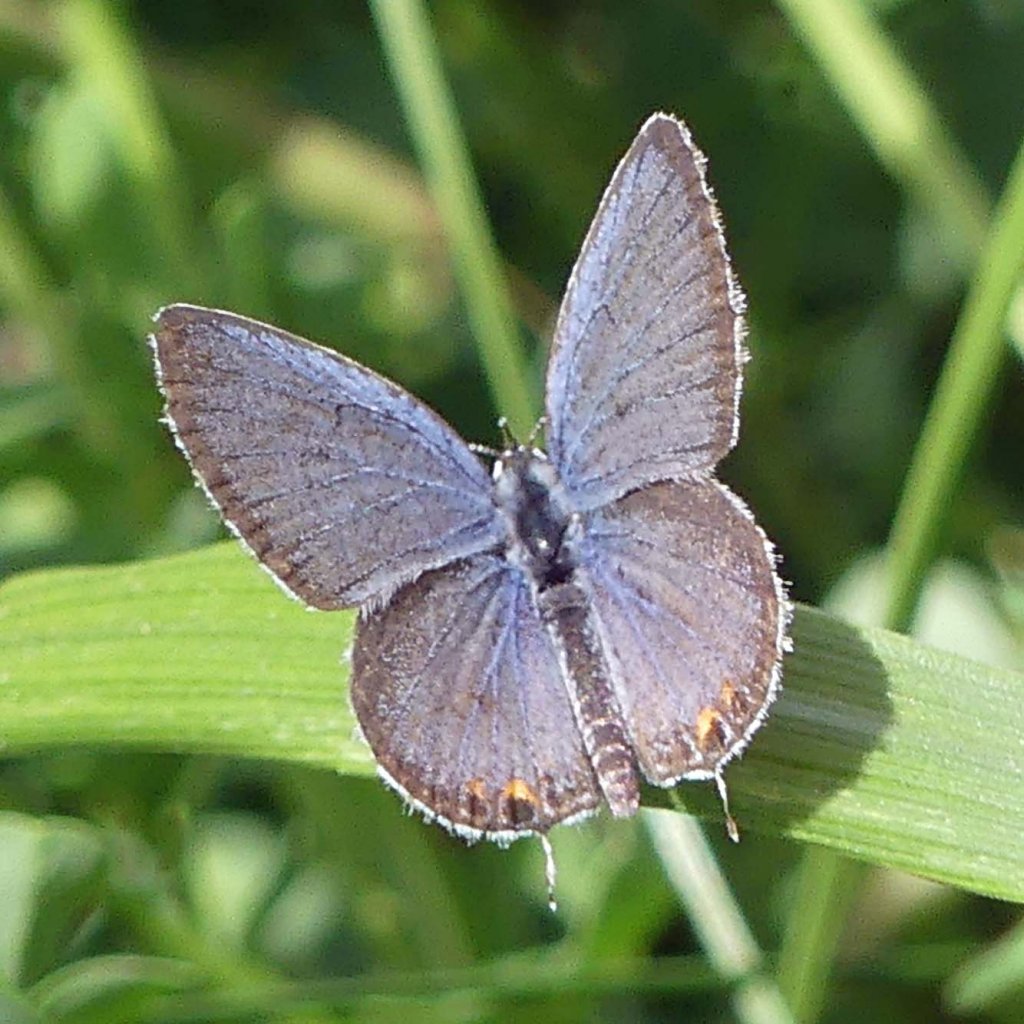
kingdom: Animalia
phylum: Arthropoda
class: Insecta
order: Lepidoptera
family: Lycaenidae
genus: Elkalyce
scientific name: Elkalyce comyntas
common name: Eastern Tailed-Blue
